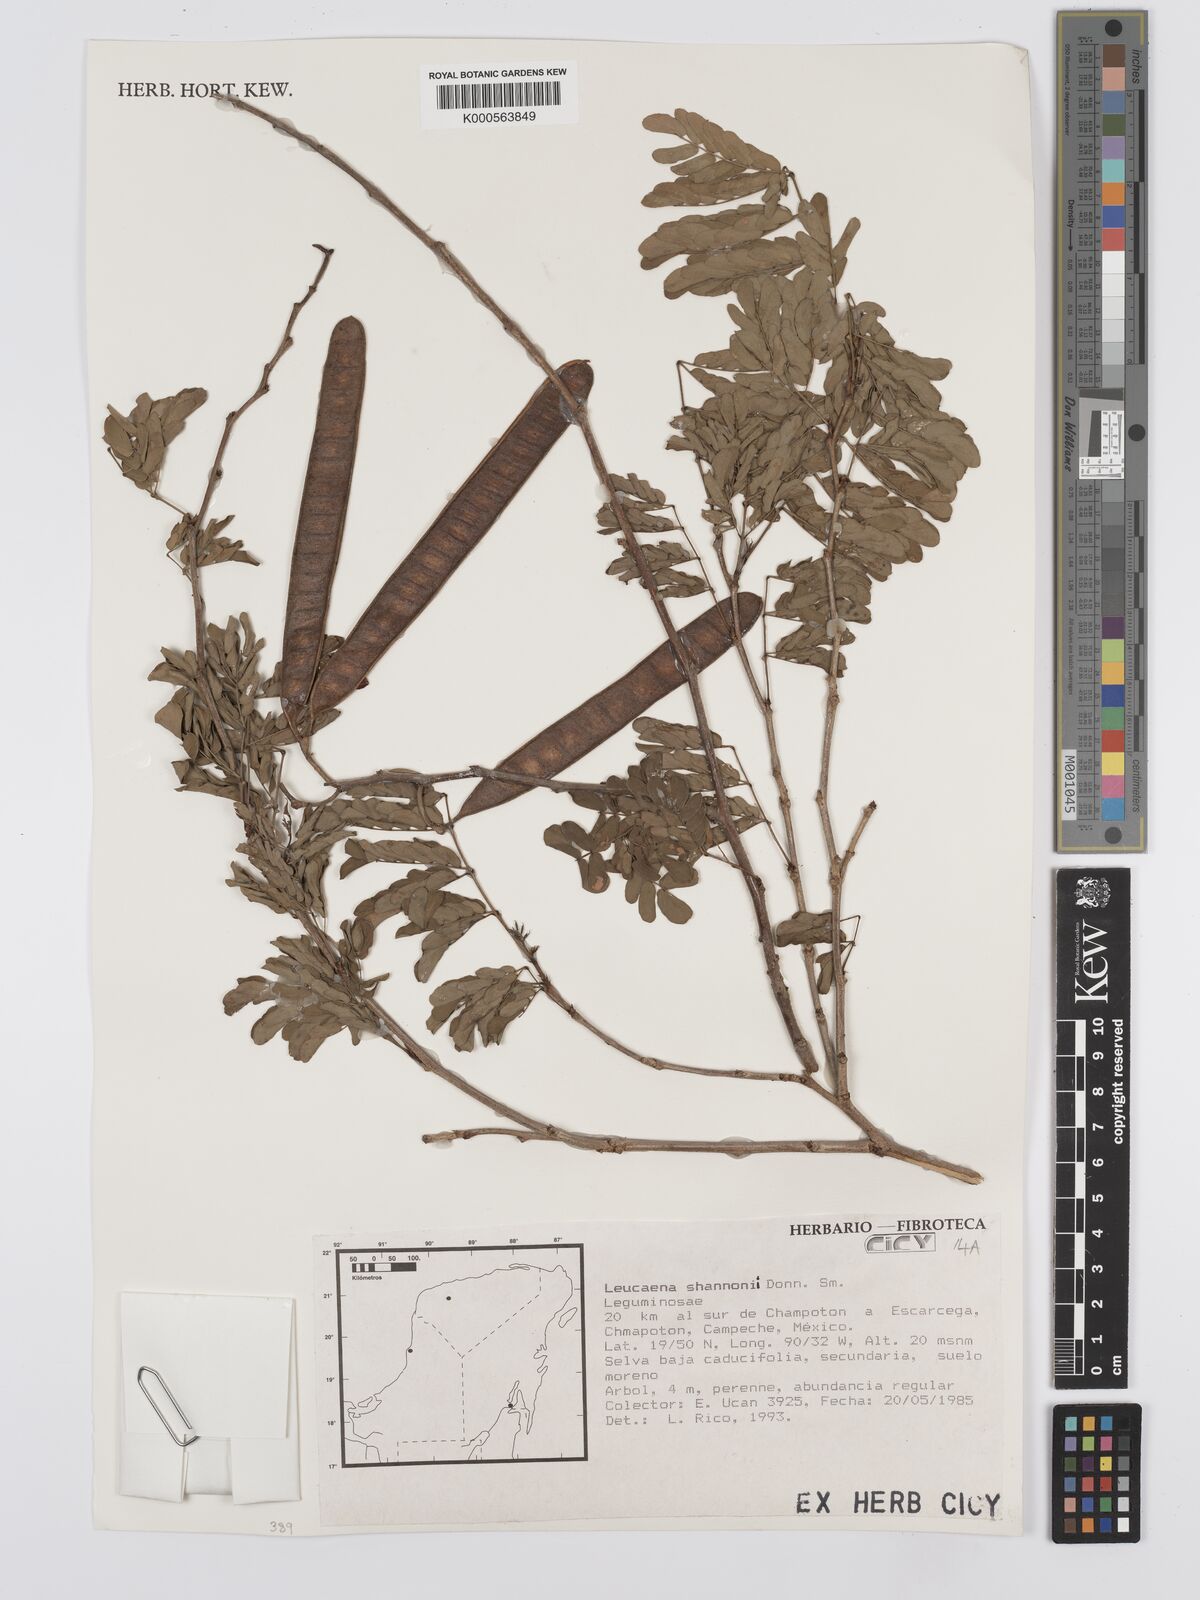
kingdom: Plantae
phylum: Tracheophyta
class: Magnoliopsida
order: Fabales
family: Fabaceae
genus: Leucaena
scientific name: Leucaena shannonii
